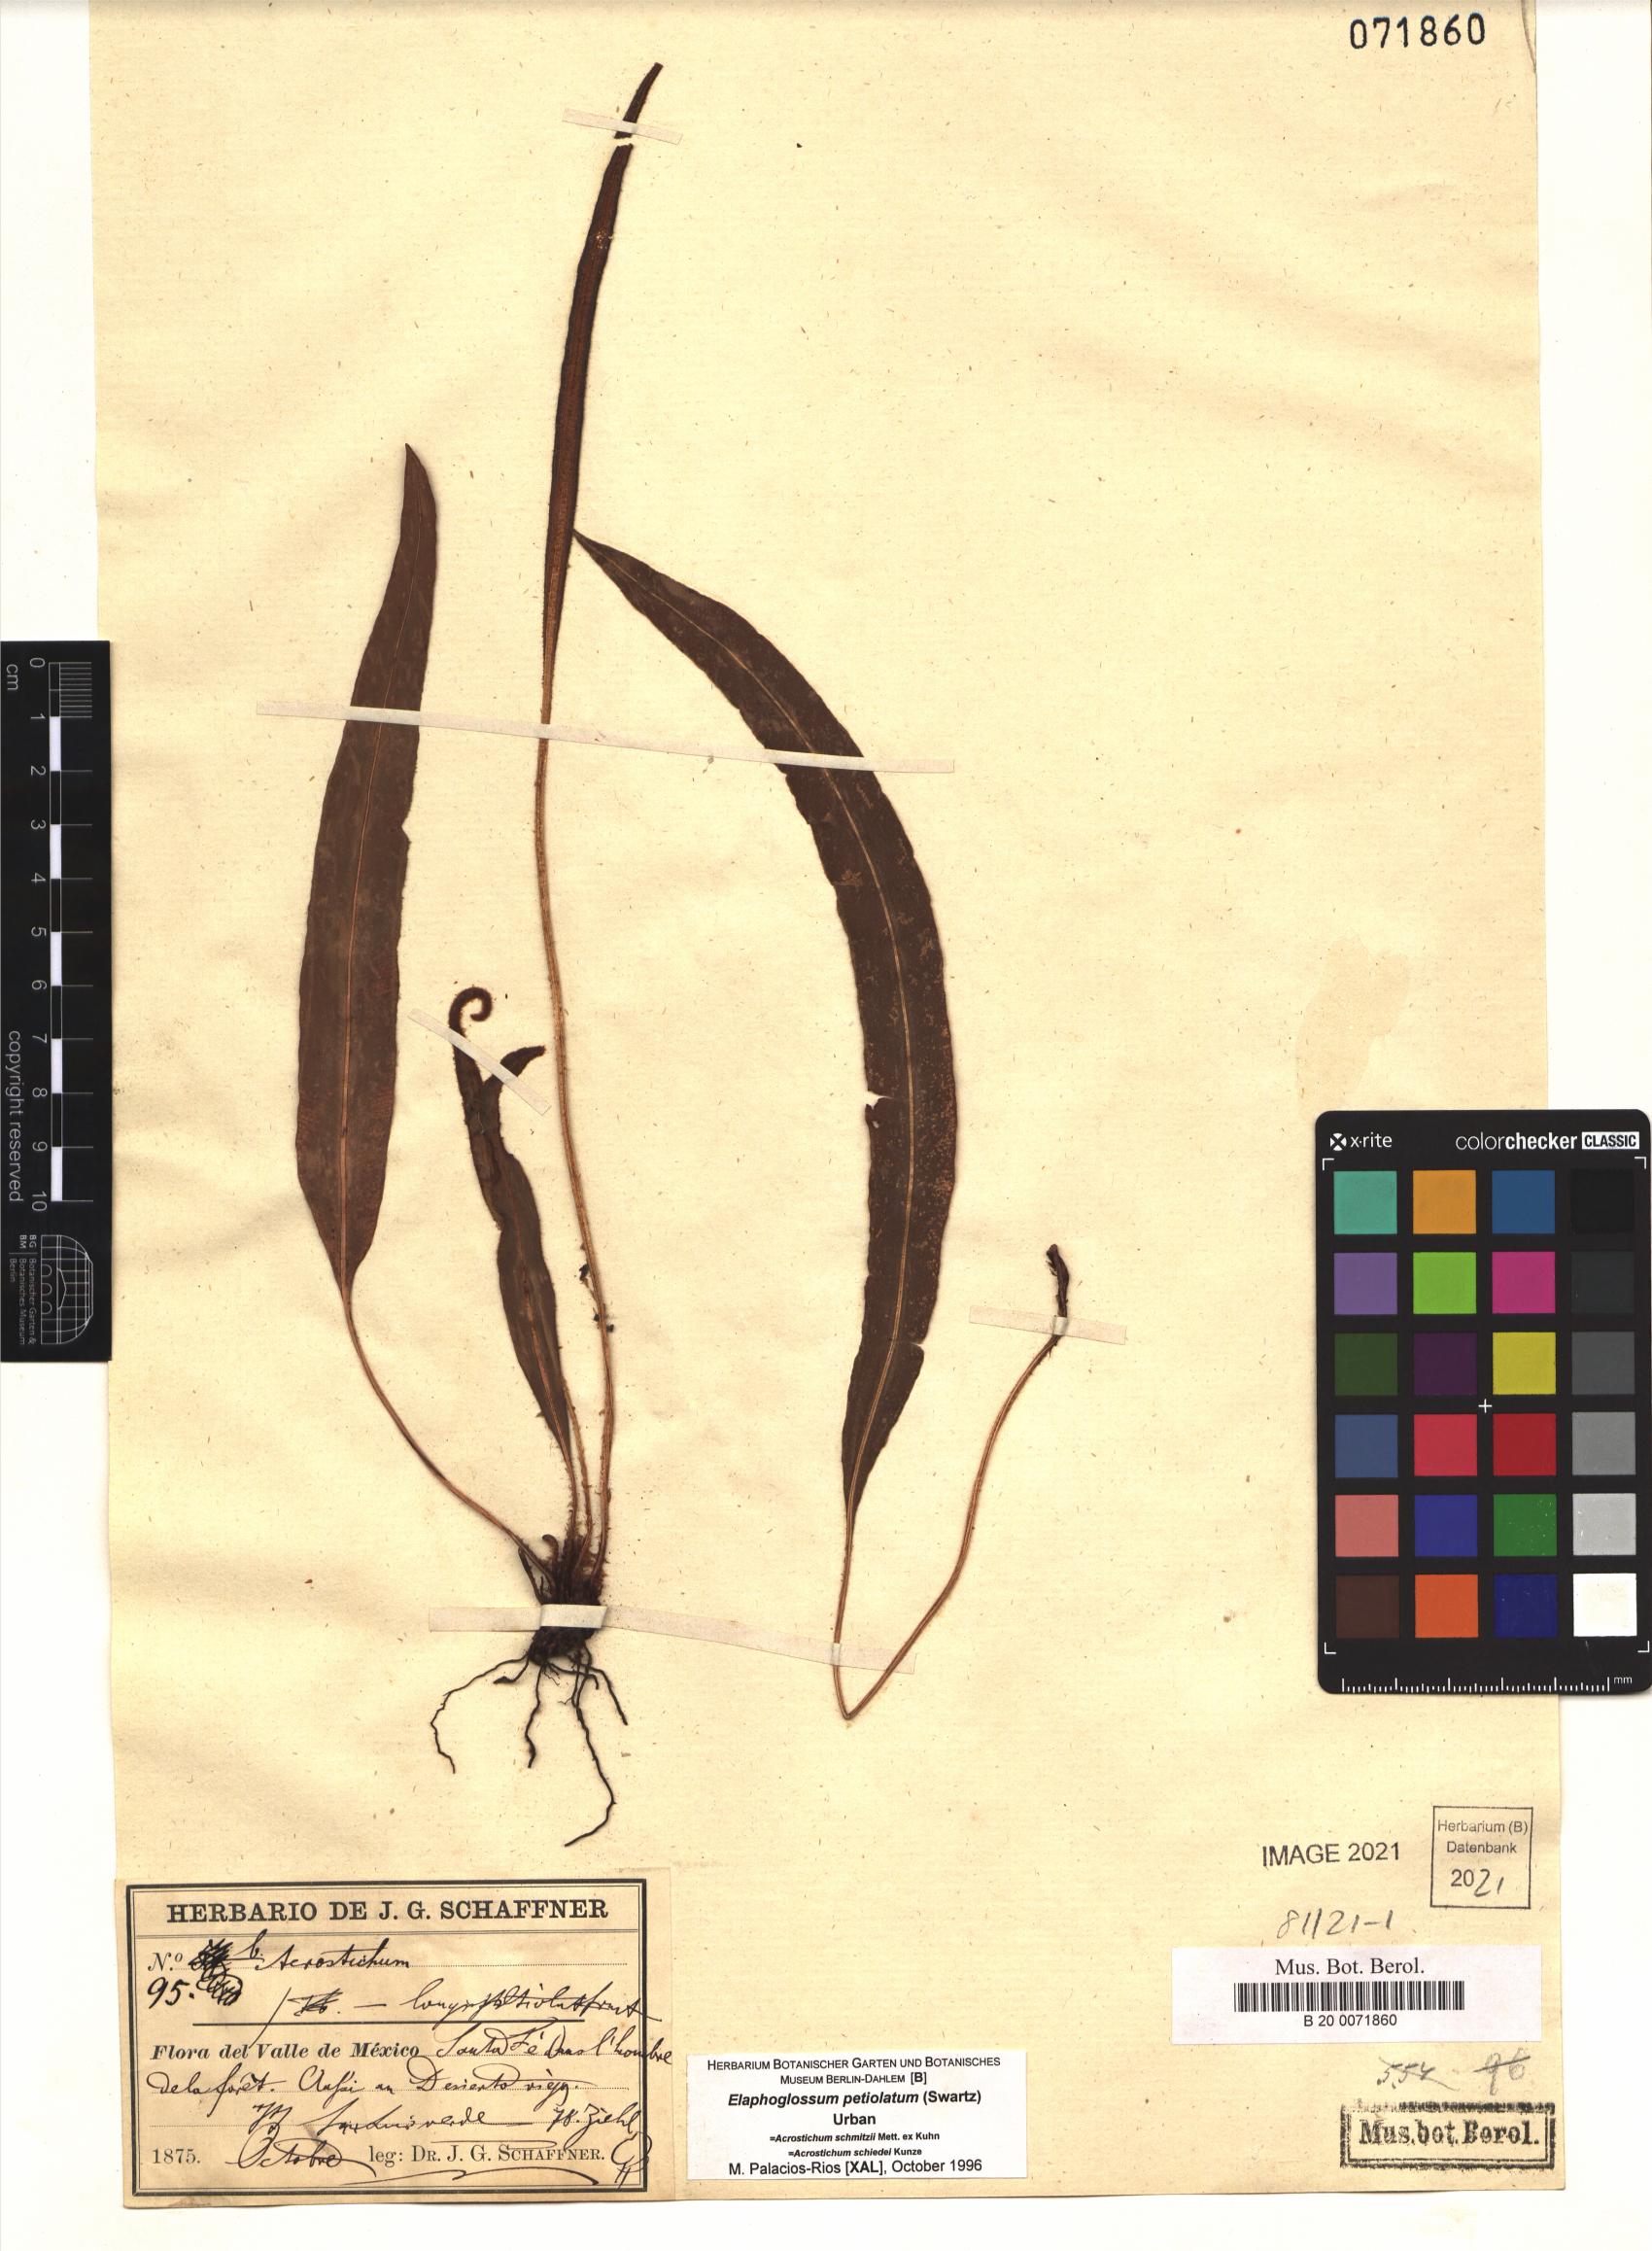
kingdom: Plantae
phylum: Tracheophyta
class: Polypodiopsida
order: Polypodiales
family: Dryopteridaceae
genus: Elaphoglossum
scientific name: Elaphoglossum petiolatum
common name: Graceful tonguefern
